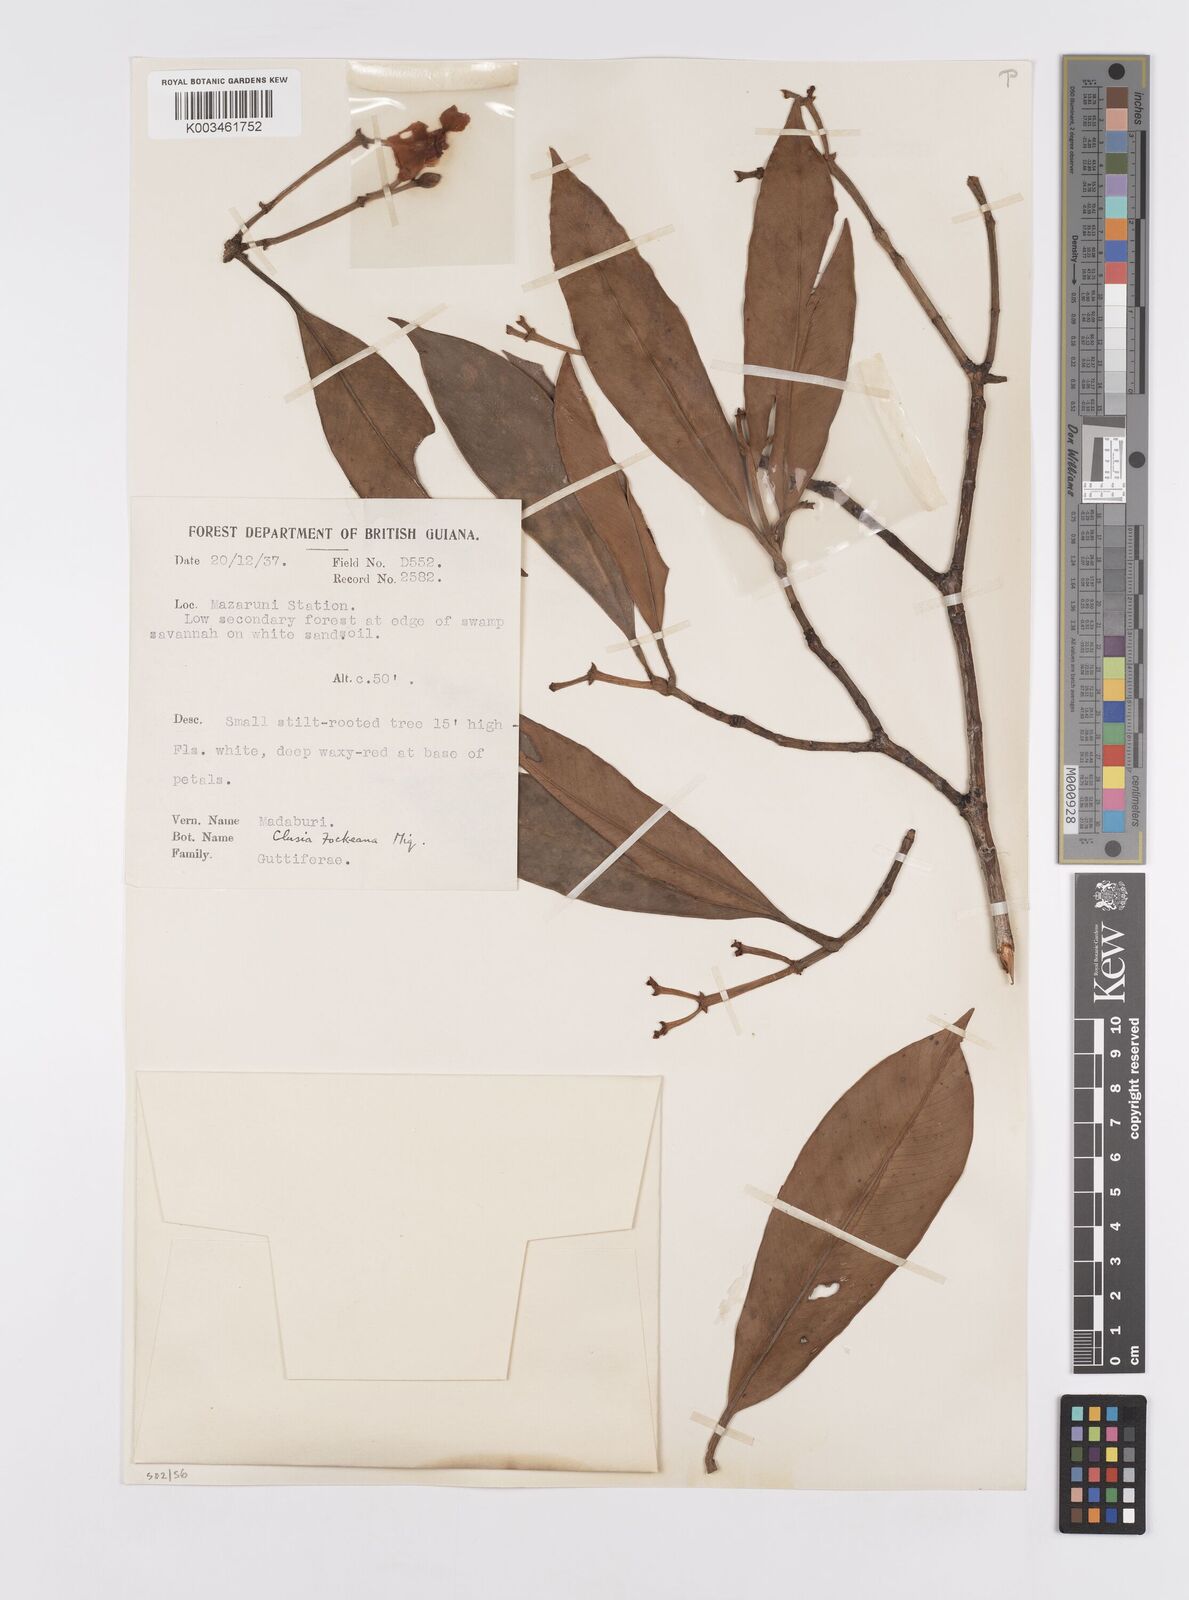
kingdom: Plantae
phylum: Tracheophyta
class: Magnoliopsida
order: Malpighiales
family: Clusiaceae
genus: Clusia
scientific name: Clusia fockeana
